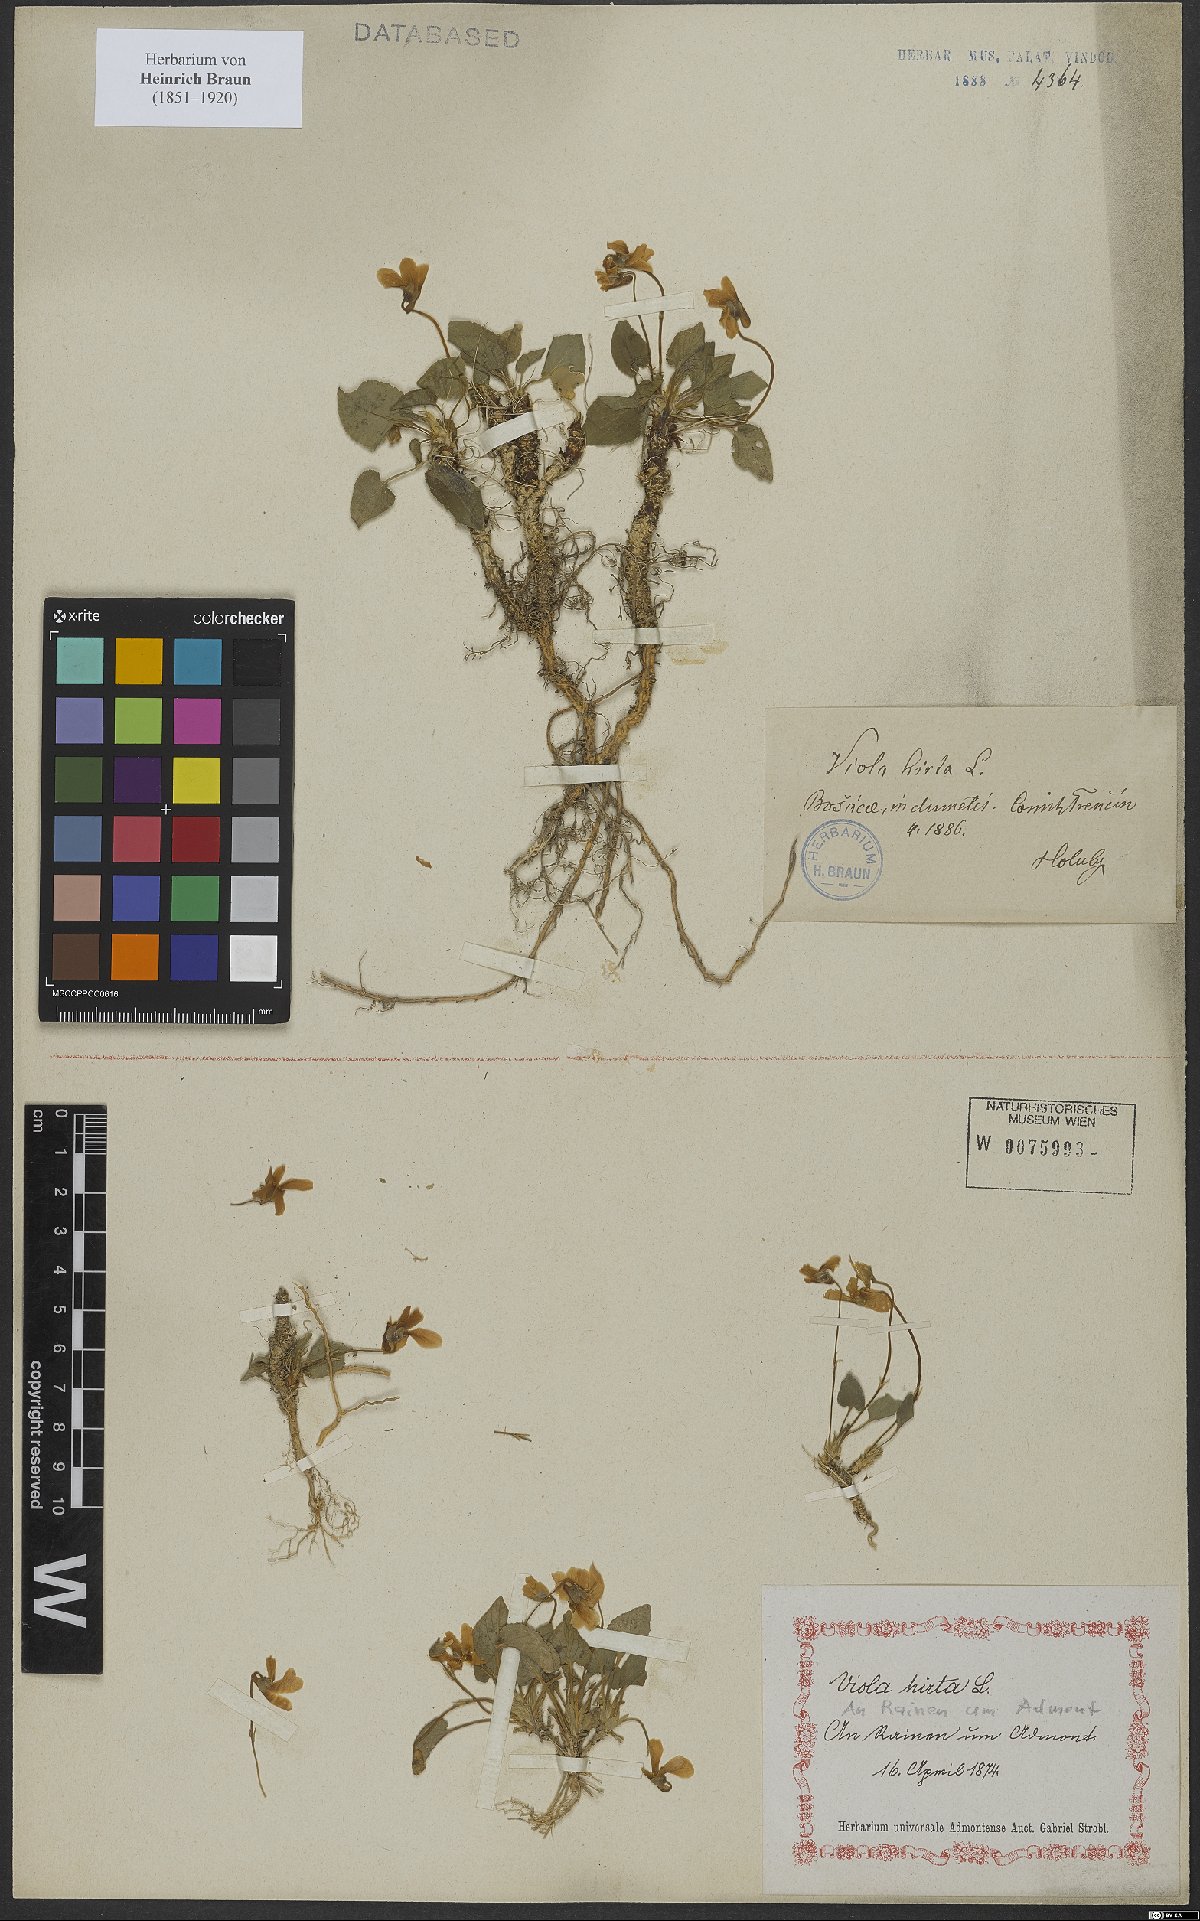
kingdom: Plantae
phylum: Tracheophyta
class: Magnoliopsida
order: Malpighiales
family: Violaceae
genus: Viola
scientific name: Viola hirta
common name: Hairy violet
